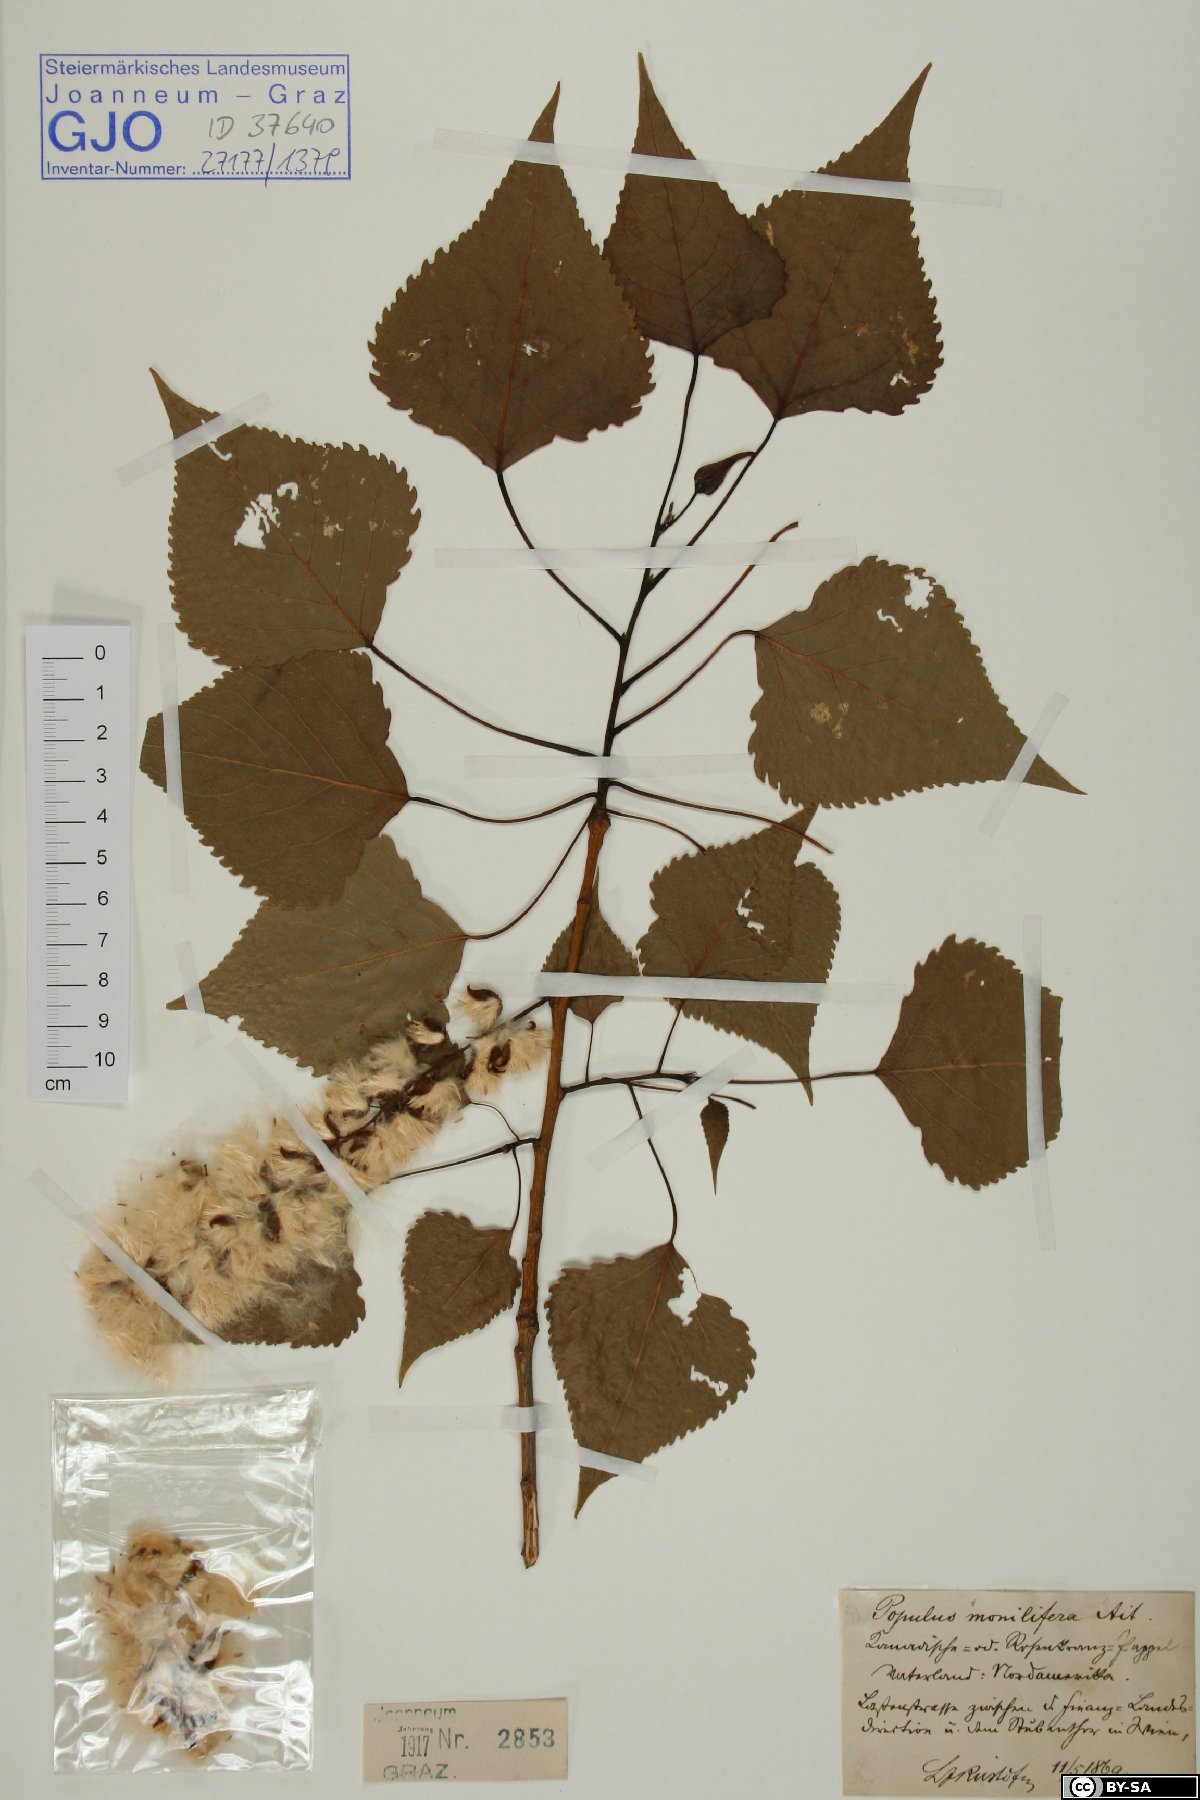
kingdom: Plantae
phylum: Tracheophyta
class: Magnoliopsida
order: Malpighiales
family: Salicaceae
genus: Populus
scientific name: Populus deltoides
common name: Eastern cottonwood
